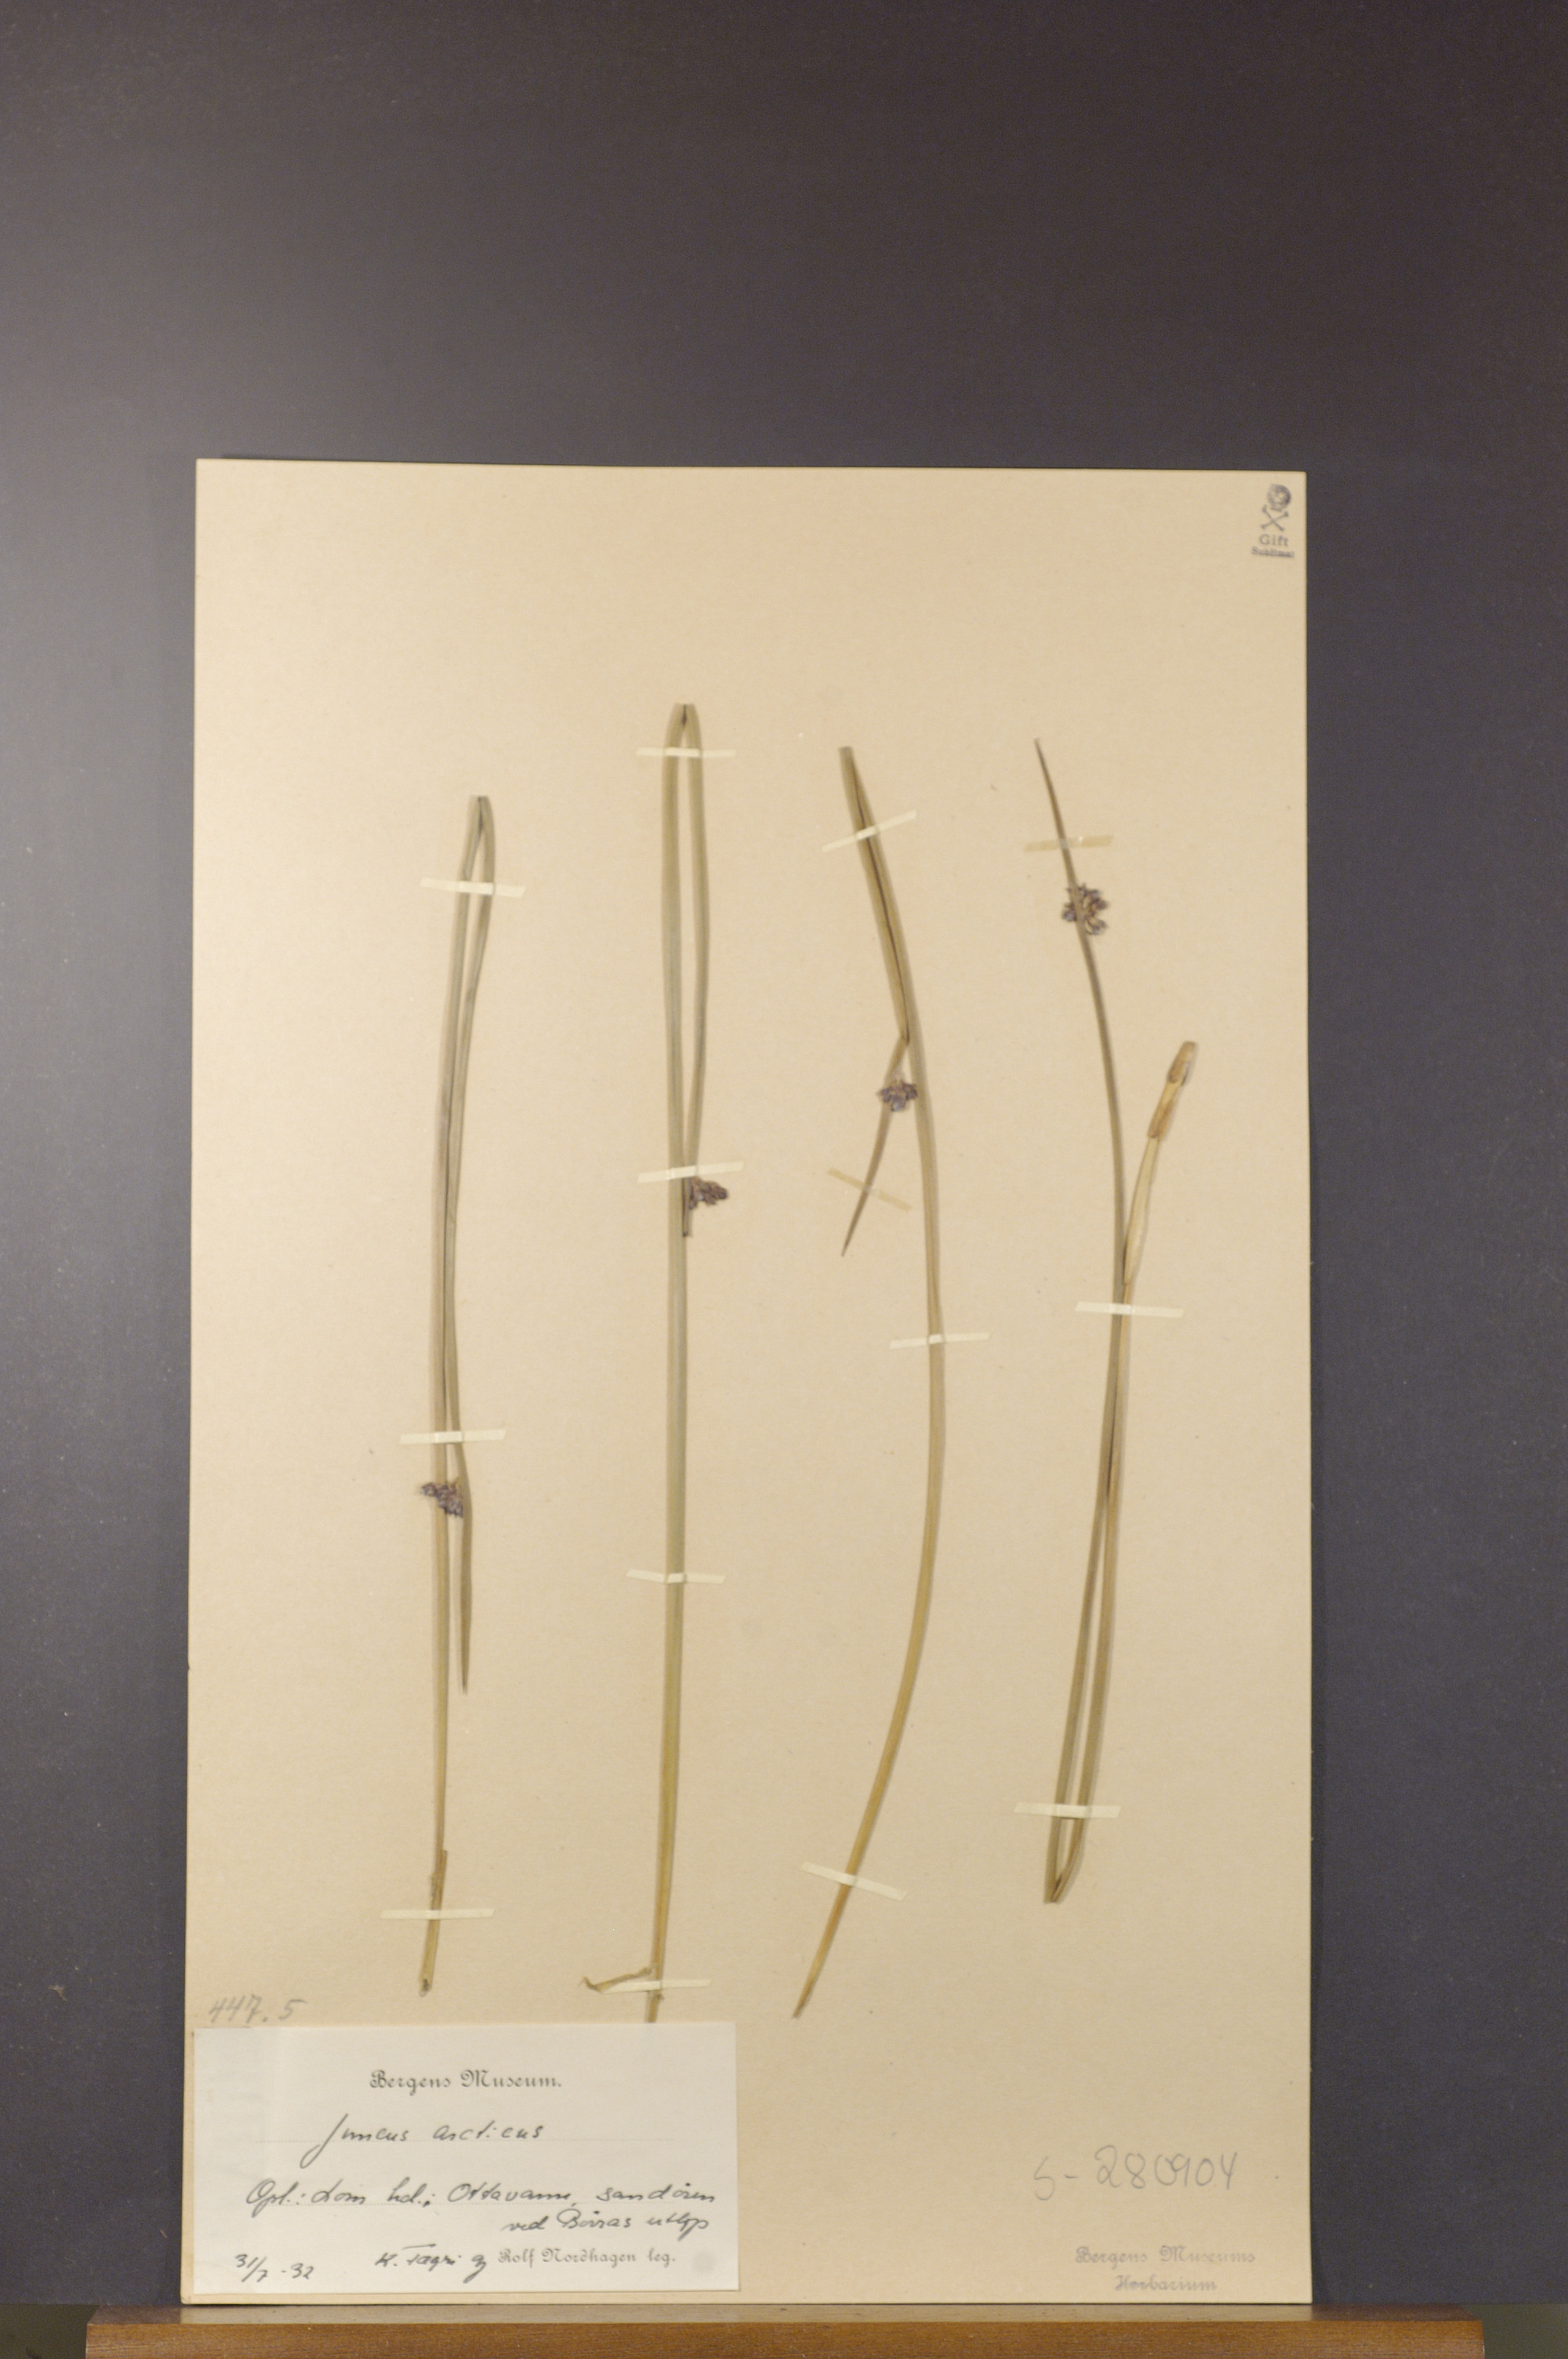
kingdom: Plantae
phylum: Tracheophyta
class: Liliopsida
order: Poales
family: Juncaceae
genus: Juncus
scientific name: Juncus arcticus
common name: Arctic rush
